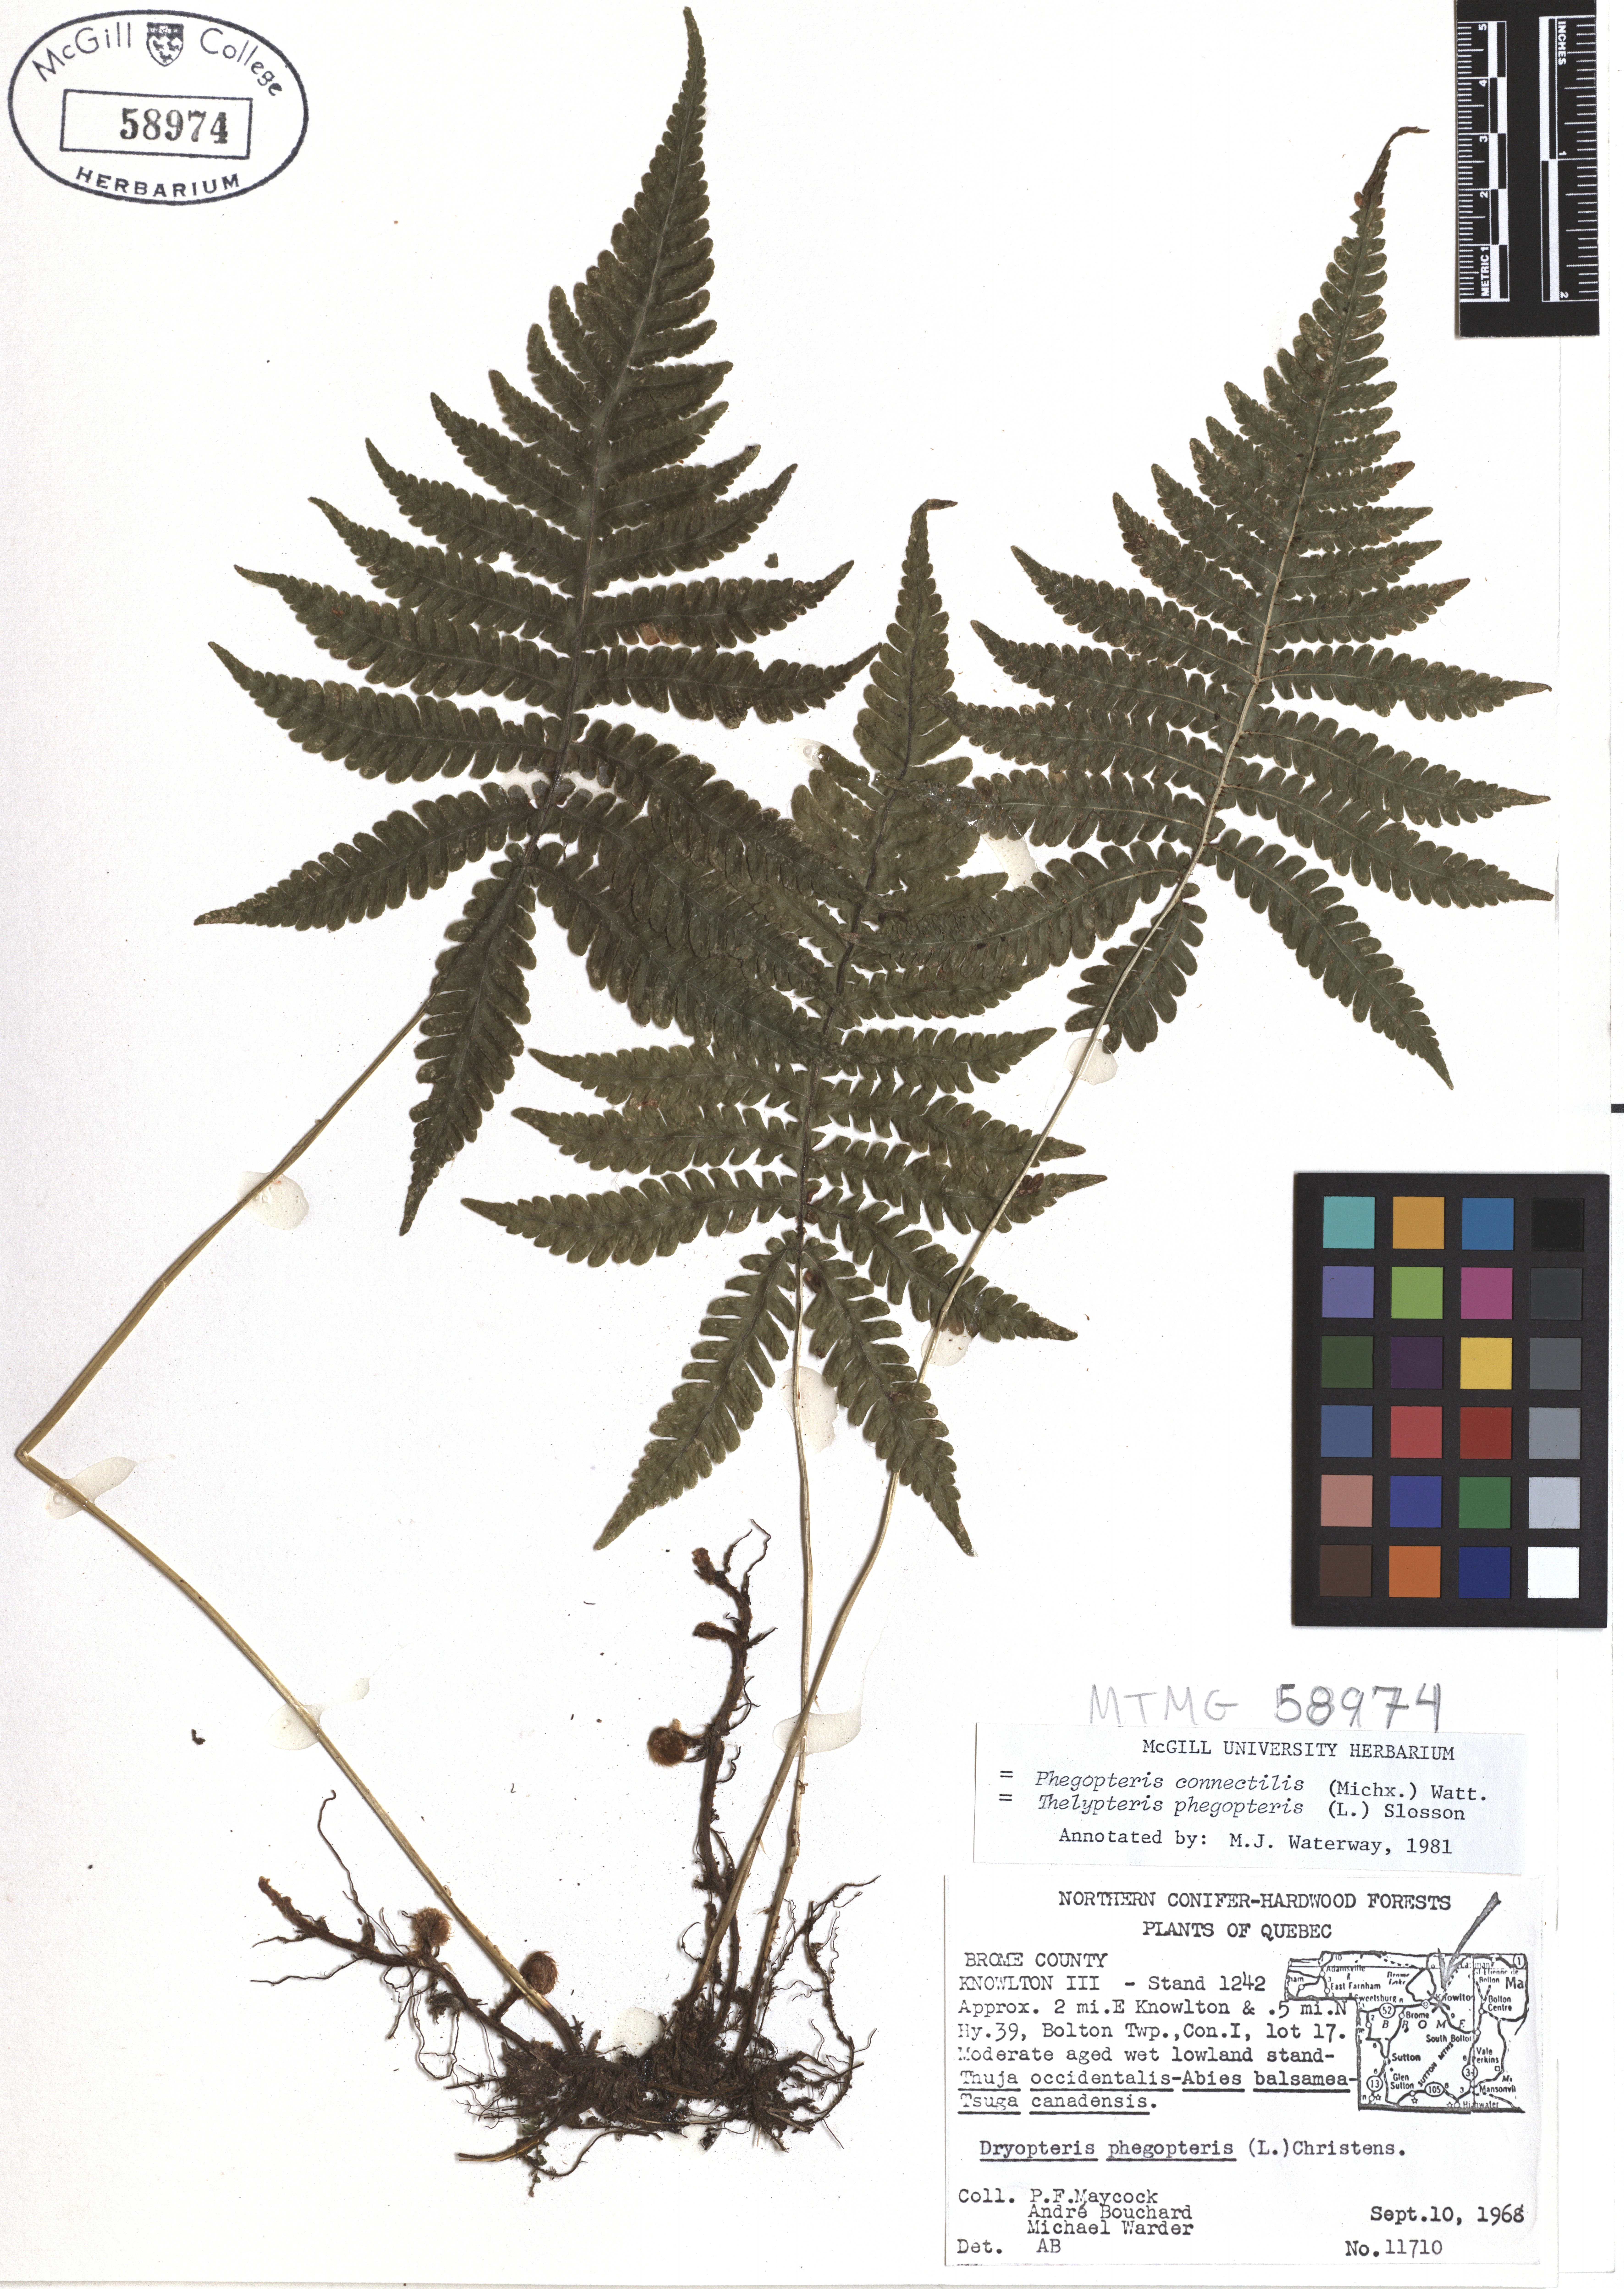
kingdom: Plantae
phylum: Tracheophyta
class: Polypodiopsida
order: Polypodiales
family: Thelypteridaceae
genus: Phegopteris
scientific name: Phegopteris connectilis
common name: Beech fern
